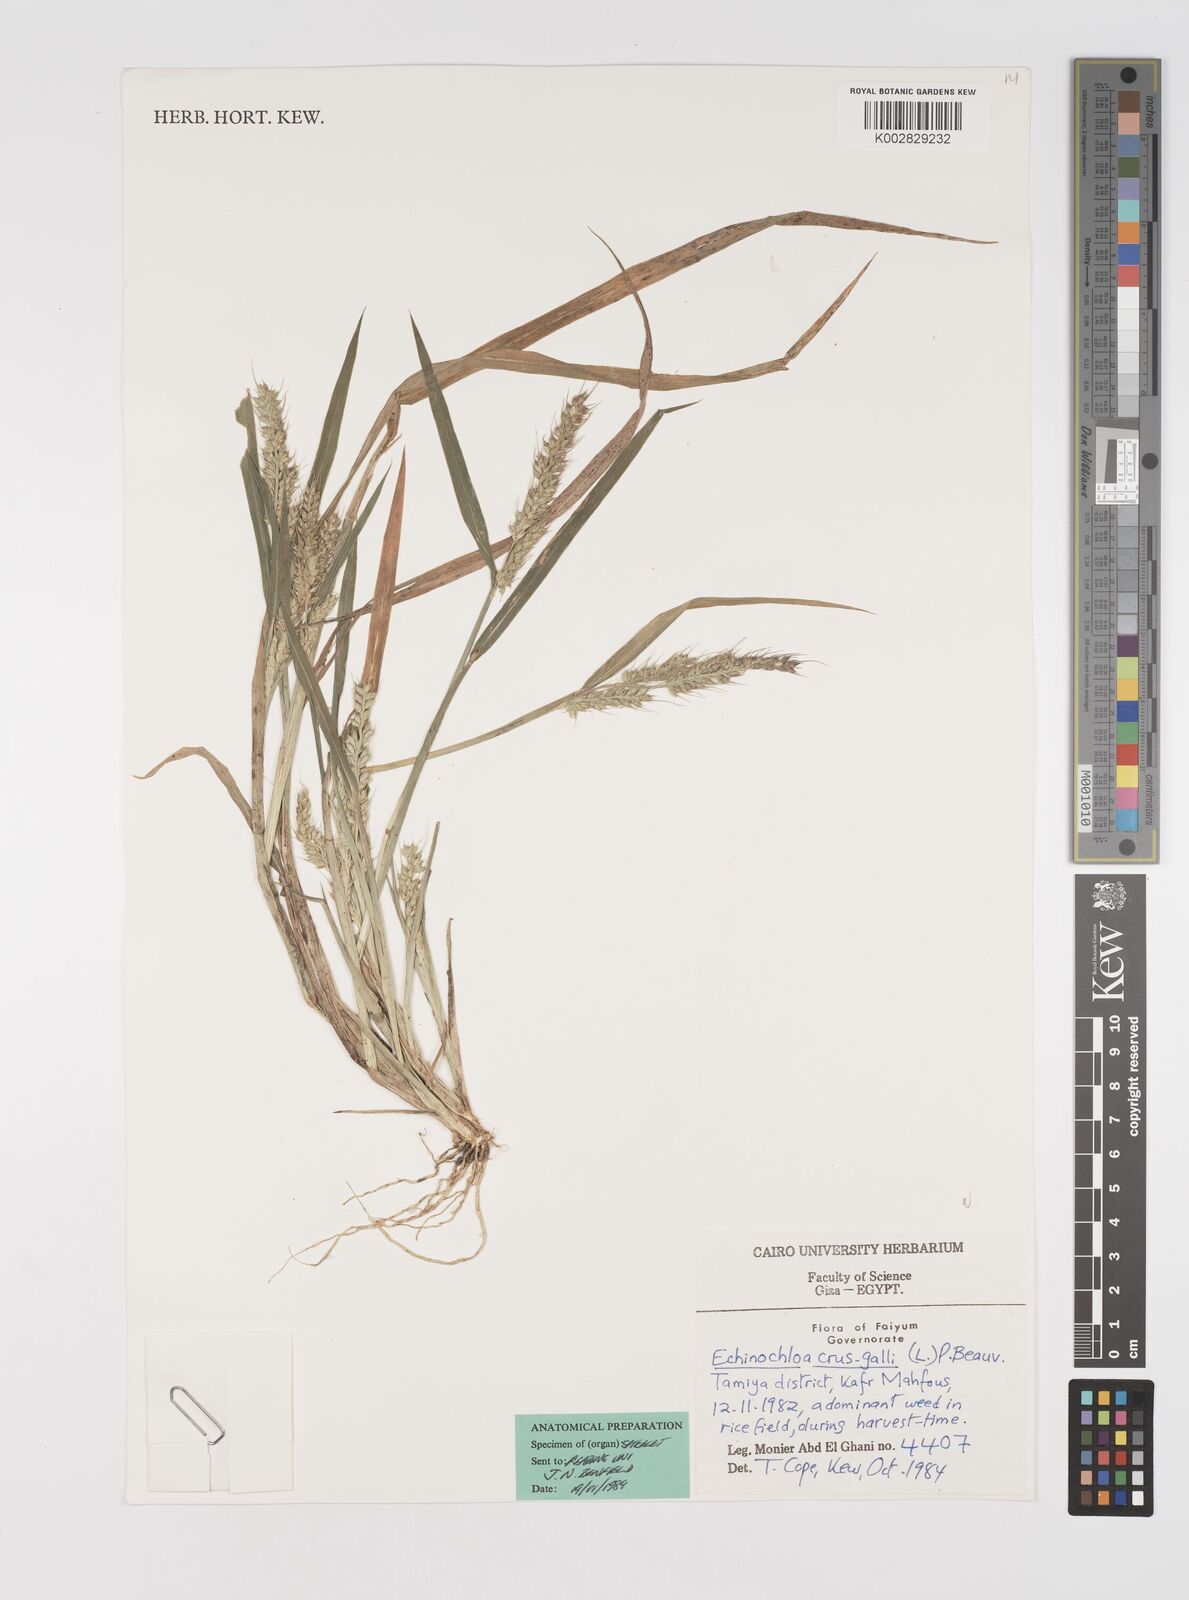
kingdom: Plantae
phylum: Tracheophyta
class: Liliopsida
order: Poales
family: Poaceae
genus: Echinochloa
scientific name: Echinochloa crus-galli
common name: Cockspur
